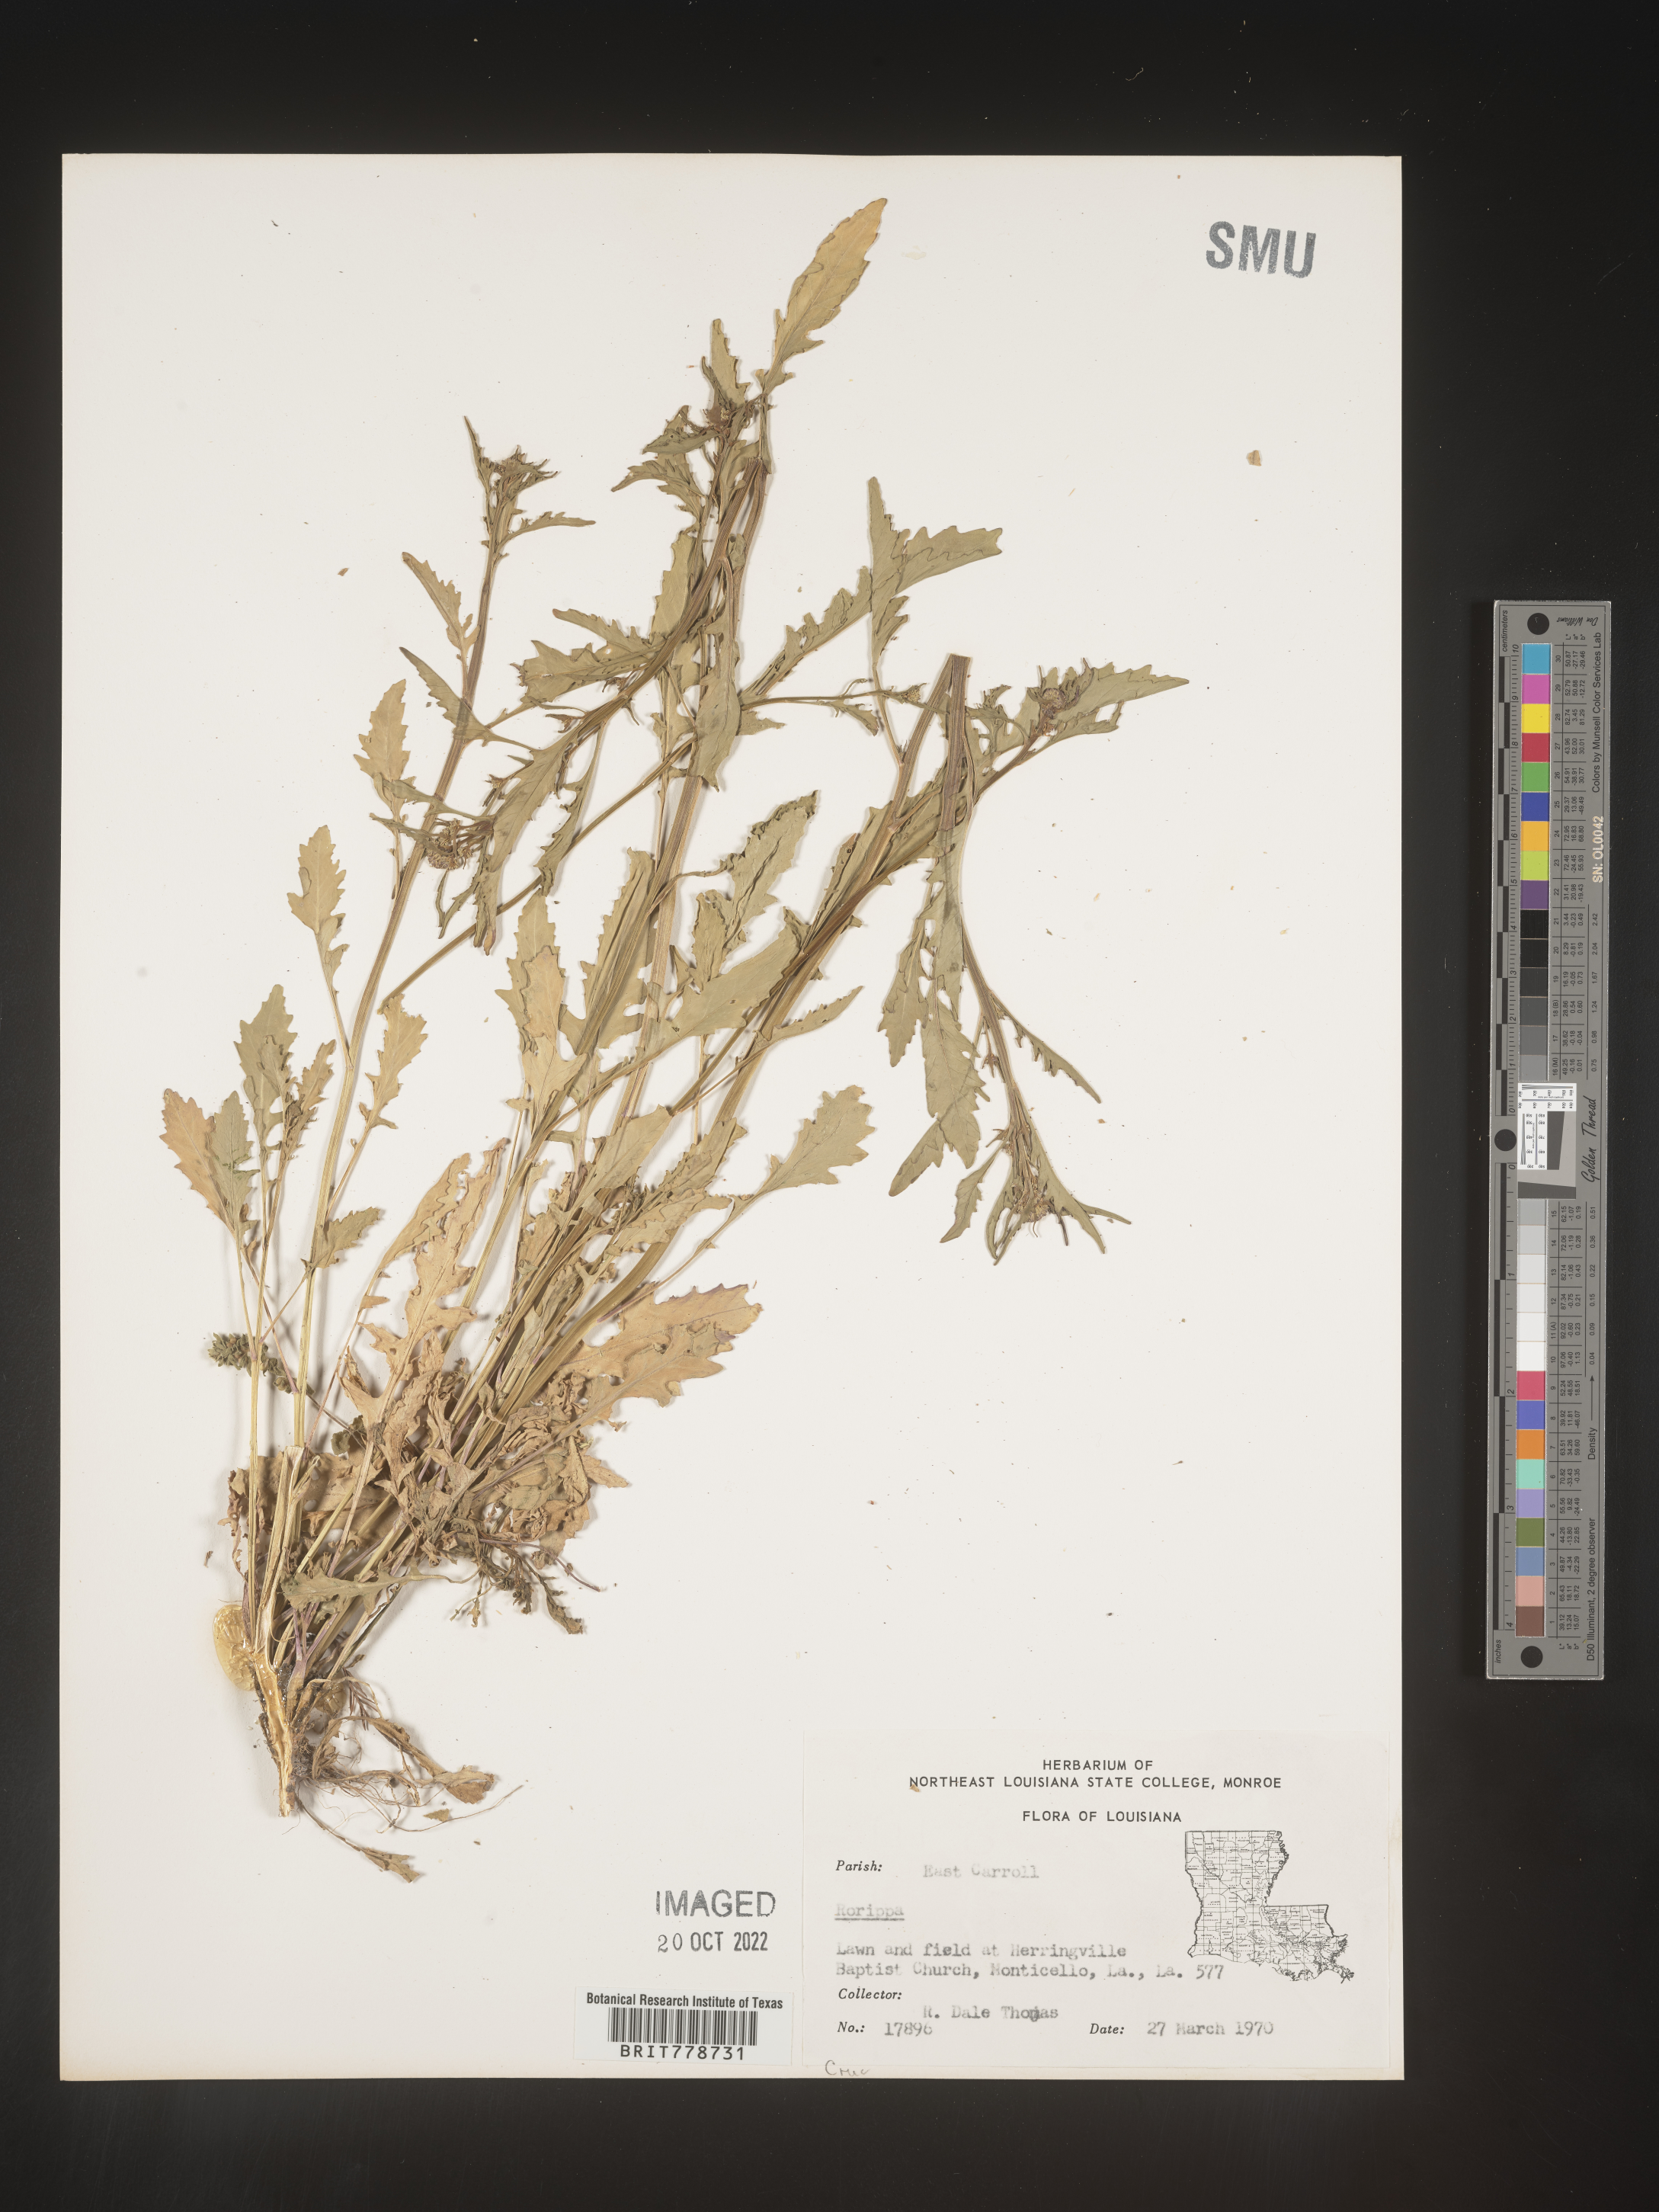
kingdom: Plantae
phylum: Tracheophyta
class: Magnoliopsida
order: Brassicales
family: Brassicaceae
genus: Rorippa
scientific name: Rorippa
